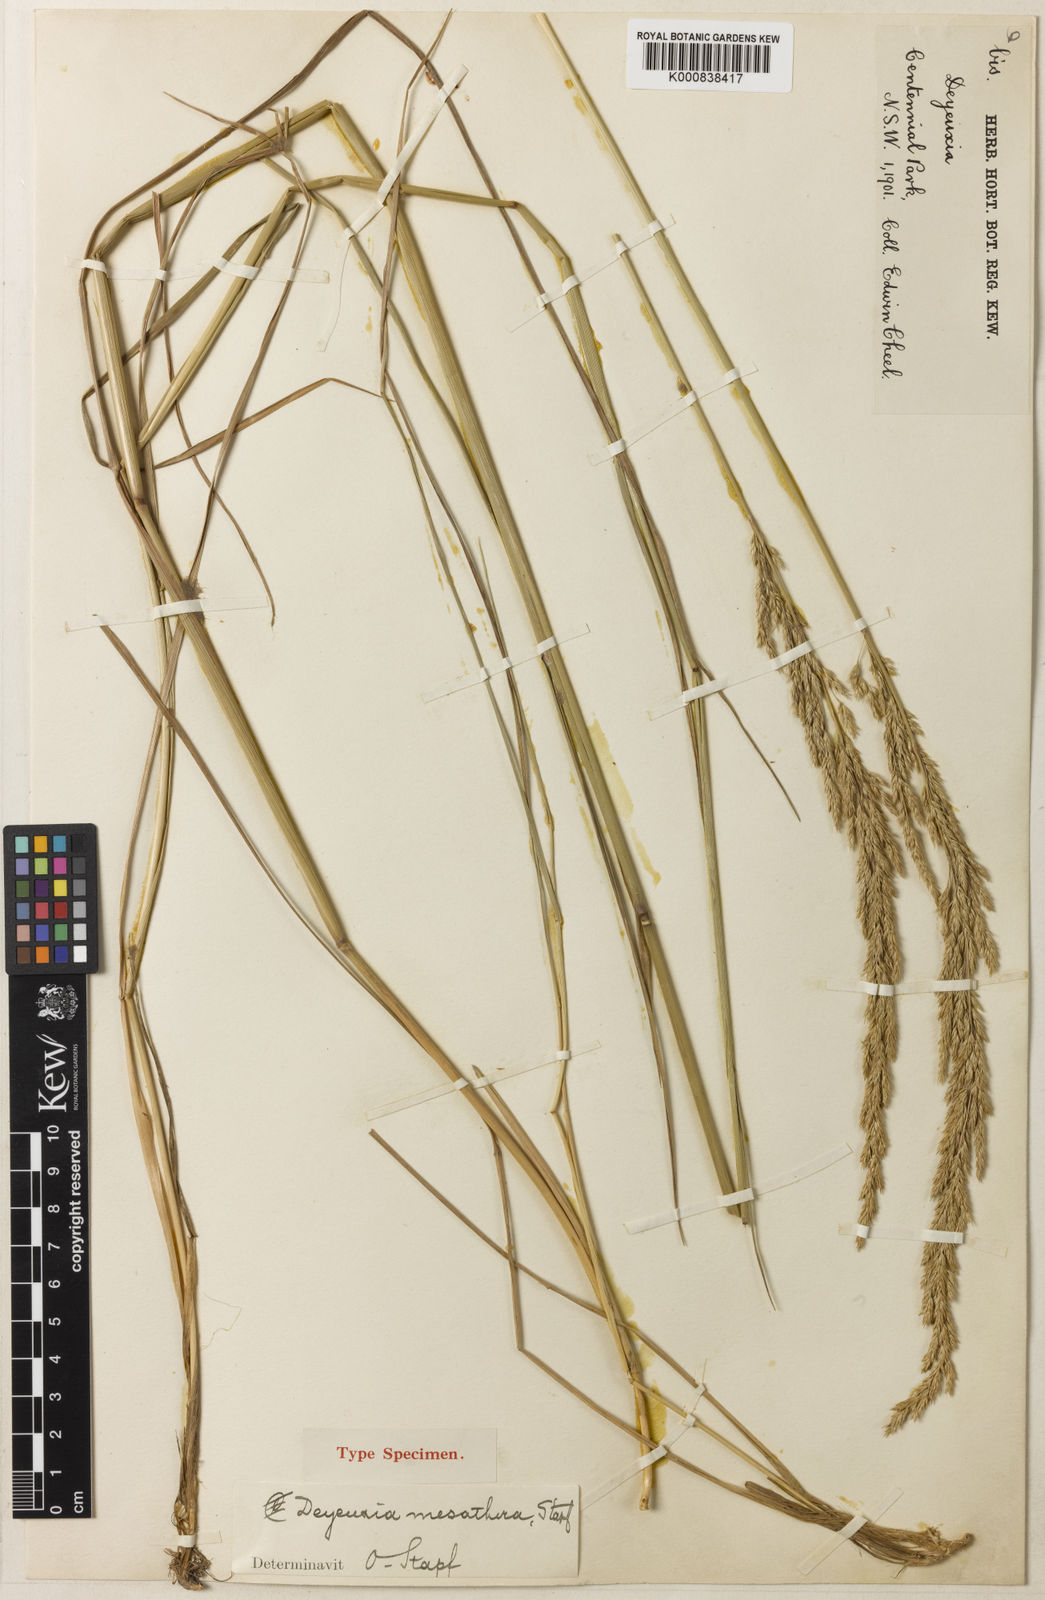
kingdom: Plantae
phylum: Tracheophyta
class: Liliopsida
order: Poales
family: Poaceae
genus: Calamagrostis
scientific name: Calamagrostis
